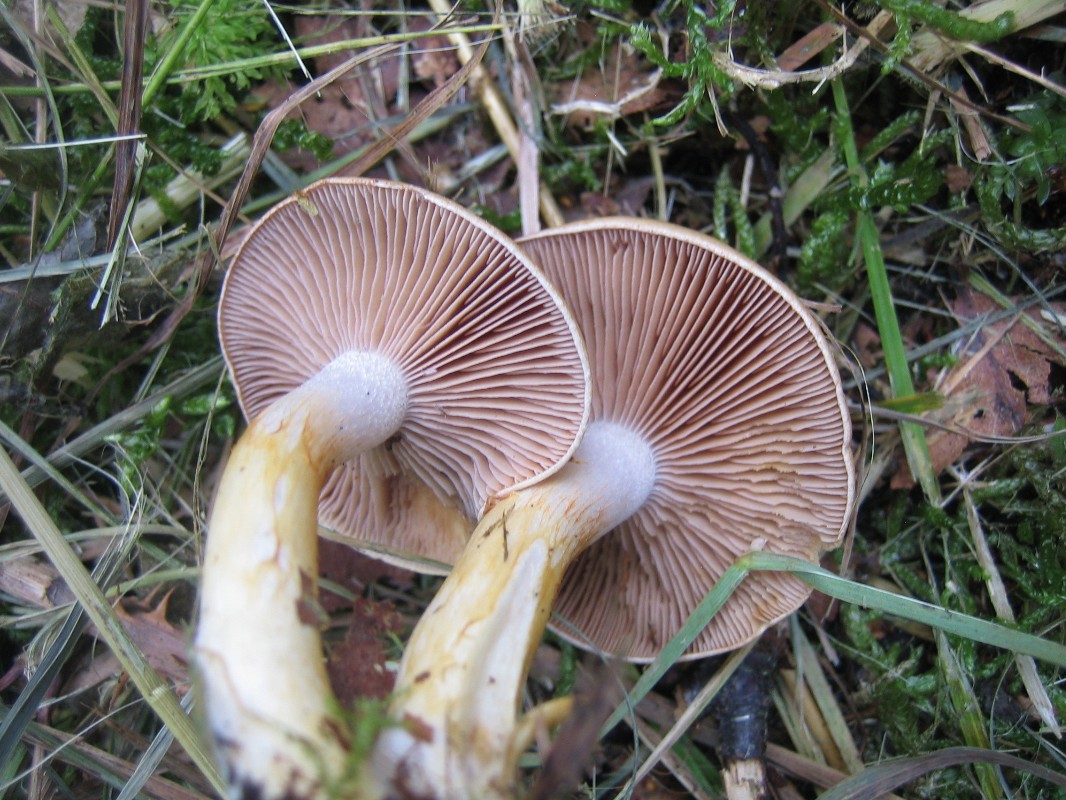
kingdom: Fungi
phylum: Basidiomycota
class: Agaricomycetes
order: Agaricales
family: Cortinariaceae
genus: Cortinarius
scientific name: Cortinarius
